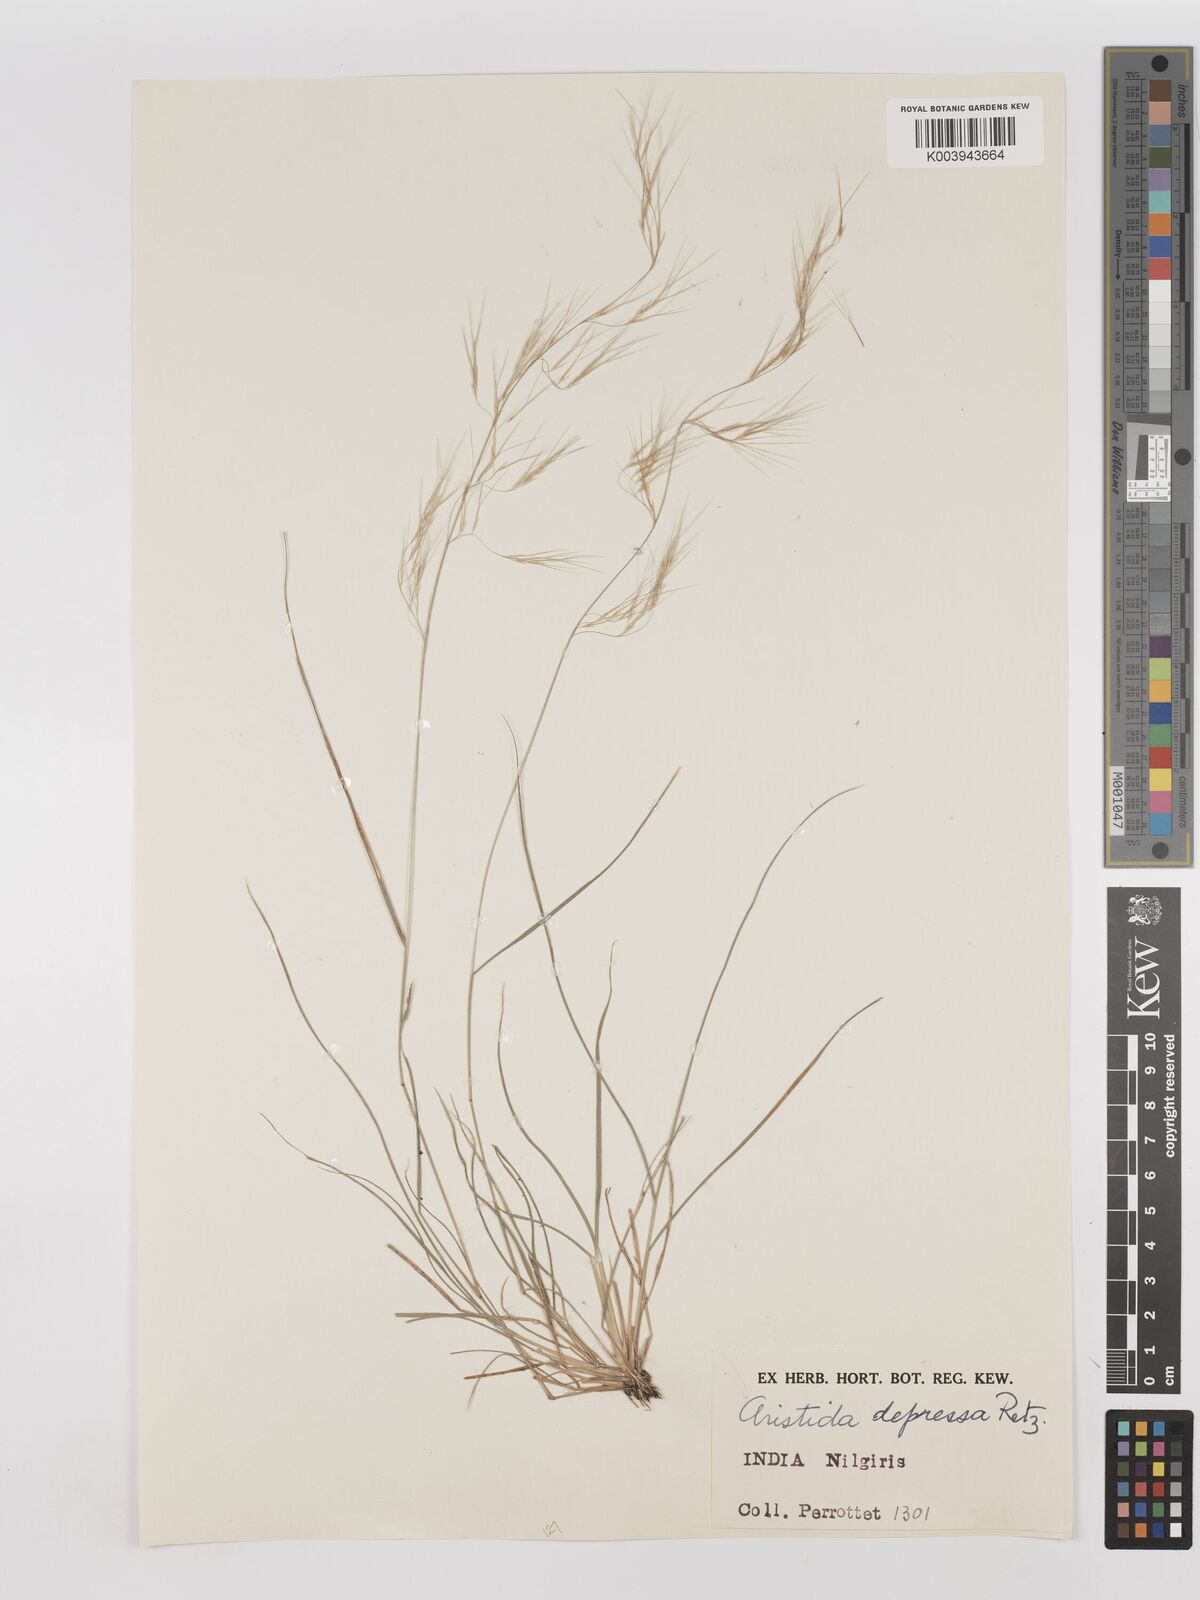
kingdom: Plantae
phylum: Tracheophyta
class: Liliopsida
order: Poales
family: Poaceae
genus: Aristida
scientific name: Aristida adscensionis
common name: Sixweeks threeawn
